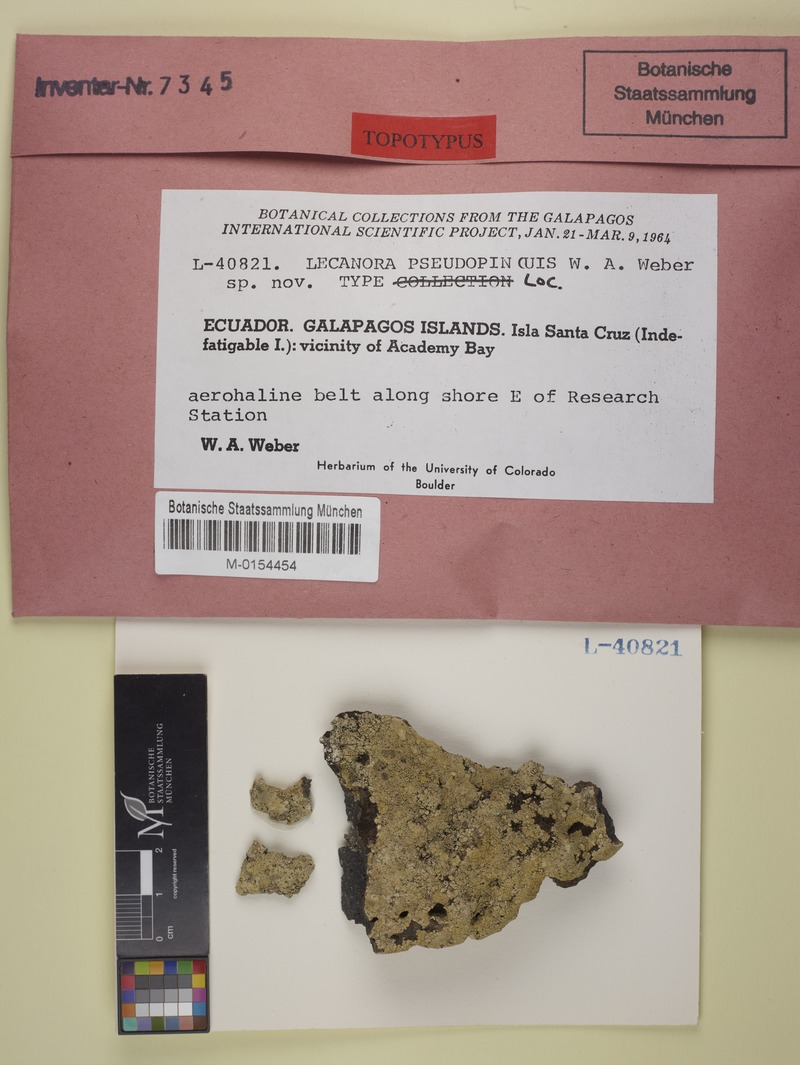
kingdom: Fungi
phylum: Ascomycota
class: Lecanoromycetes
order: Lecanorales
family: Lecanoraceae
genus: Lecanora
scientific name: Lecanora pseudopinguis
